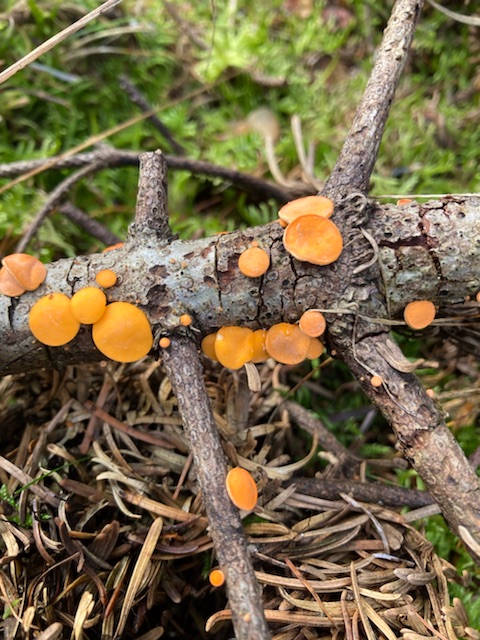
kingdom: Fungi
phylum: Ascomycota
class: Pezizomycetes
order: Pezizales
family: Sarcoscyphaceae
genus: Pithya
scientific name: Pithya vulgaris
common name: stor dukatbæger
